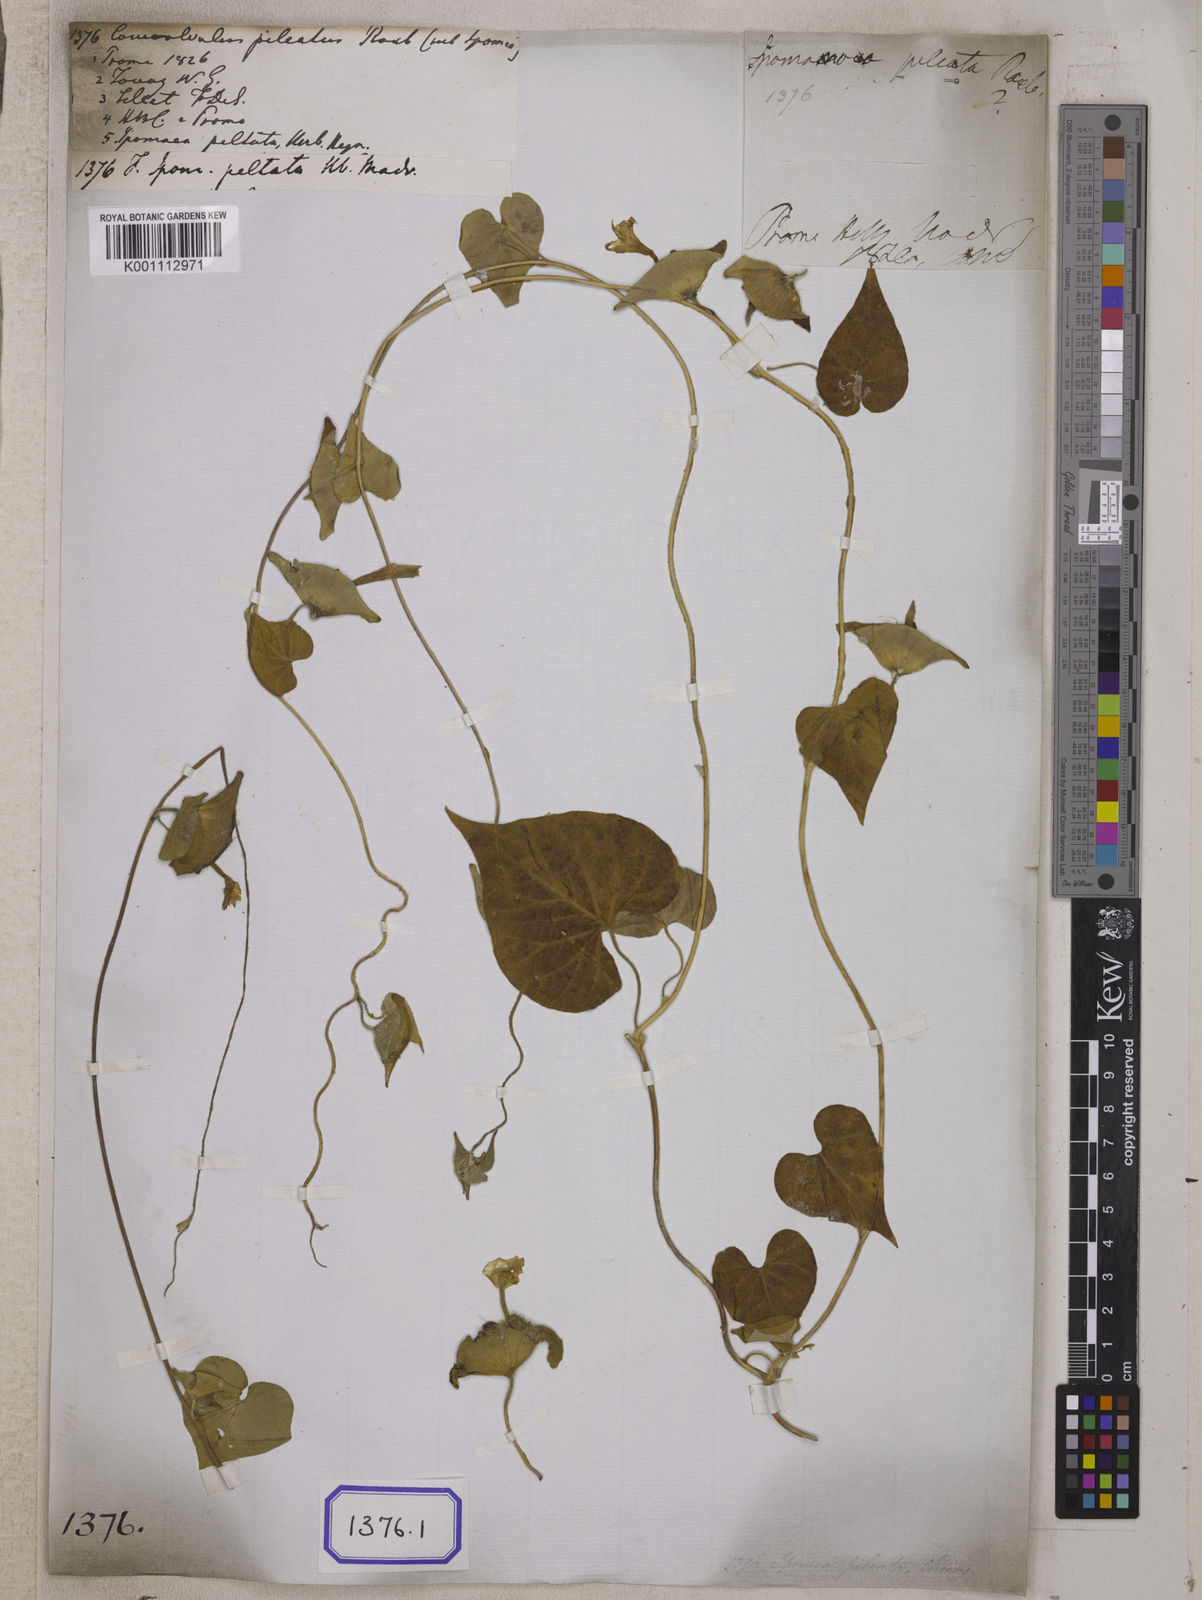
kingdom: Plantae
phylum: Tracheophyta
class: Magnoliopsida
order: Solanales
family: Convolvulaceae
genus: Ipomoea
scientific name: Ipomoea pileata
